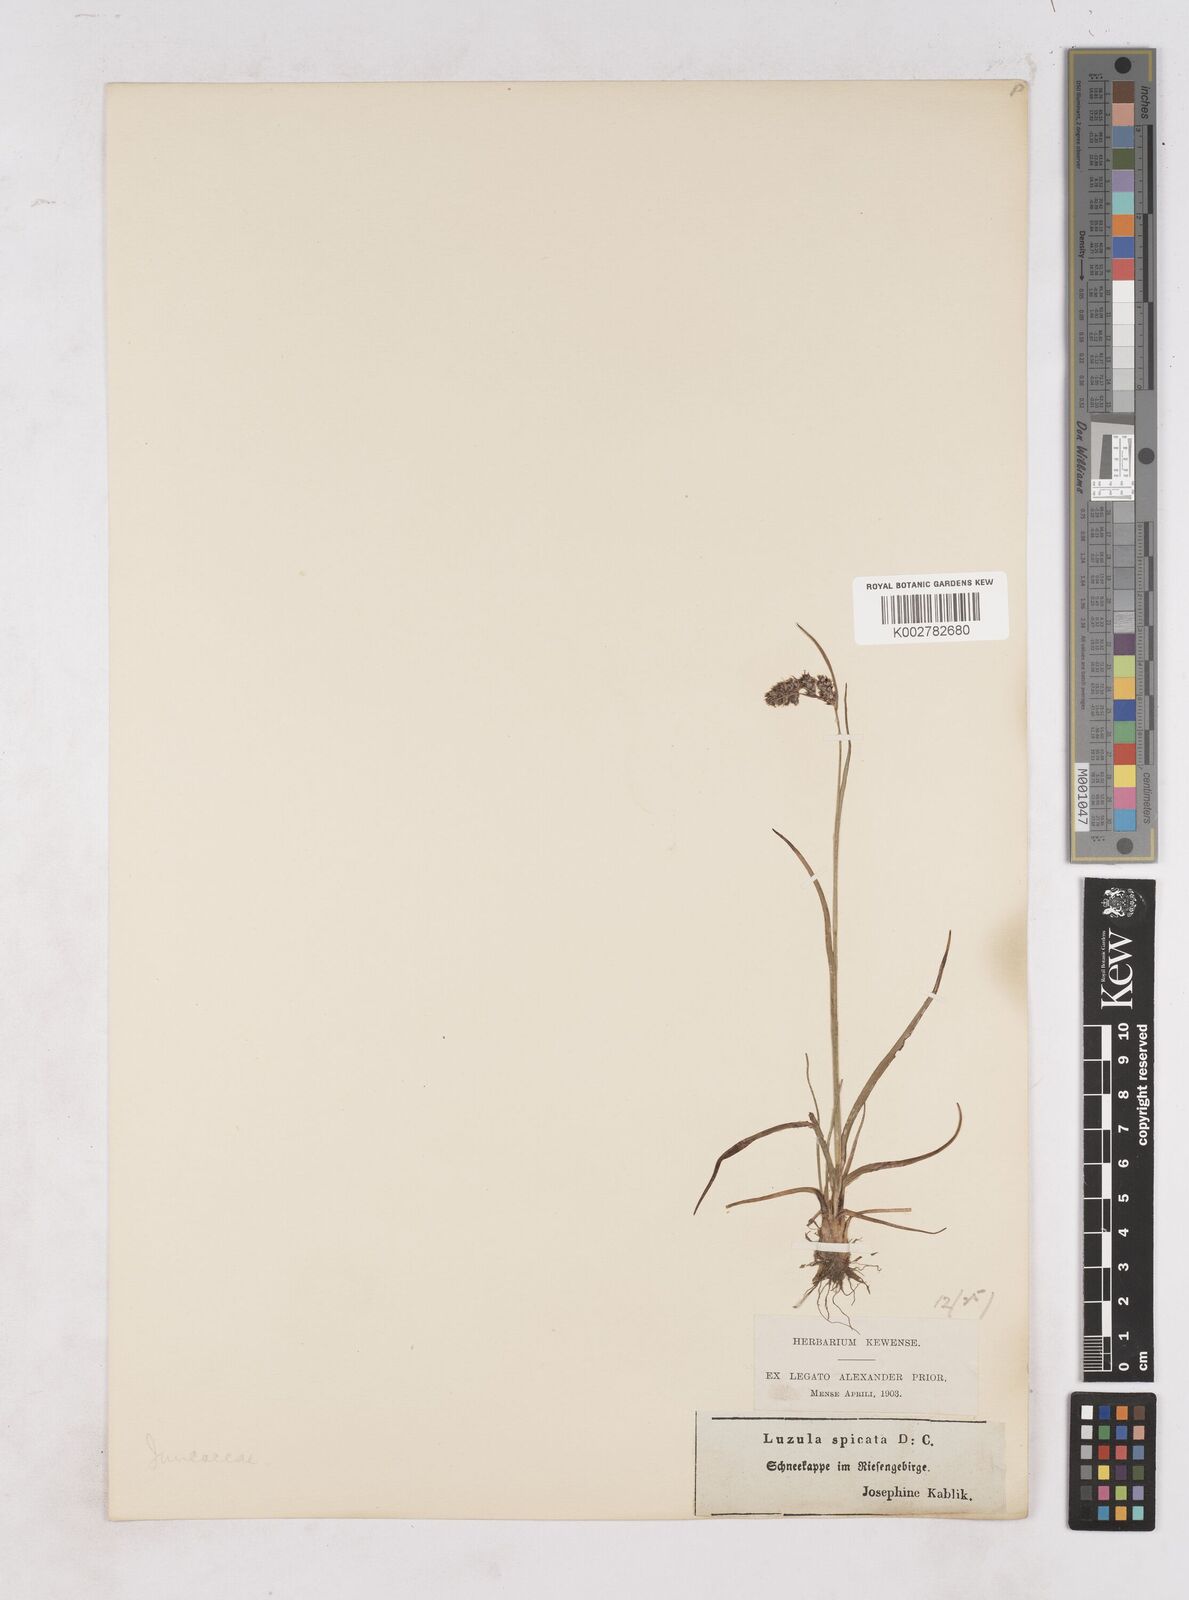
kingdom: Plantae
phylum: Tracheophyta
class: Liliopsida
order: Poales
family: Juncaceae
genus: Luzula
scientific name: Luzula spicata
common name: Spiked wood-rush
